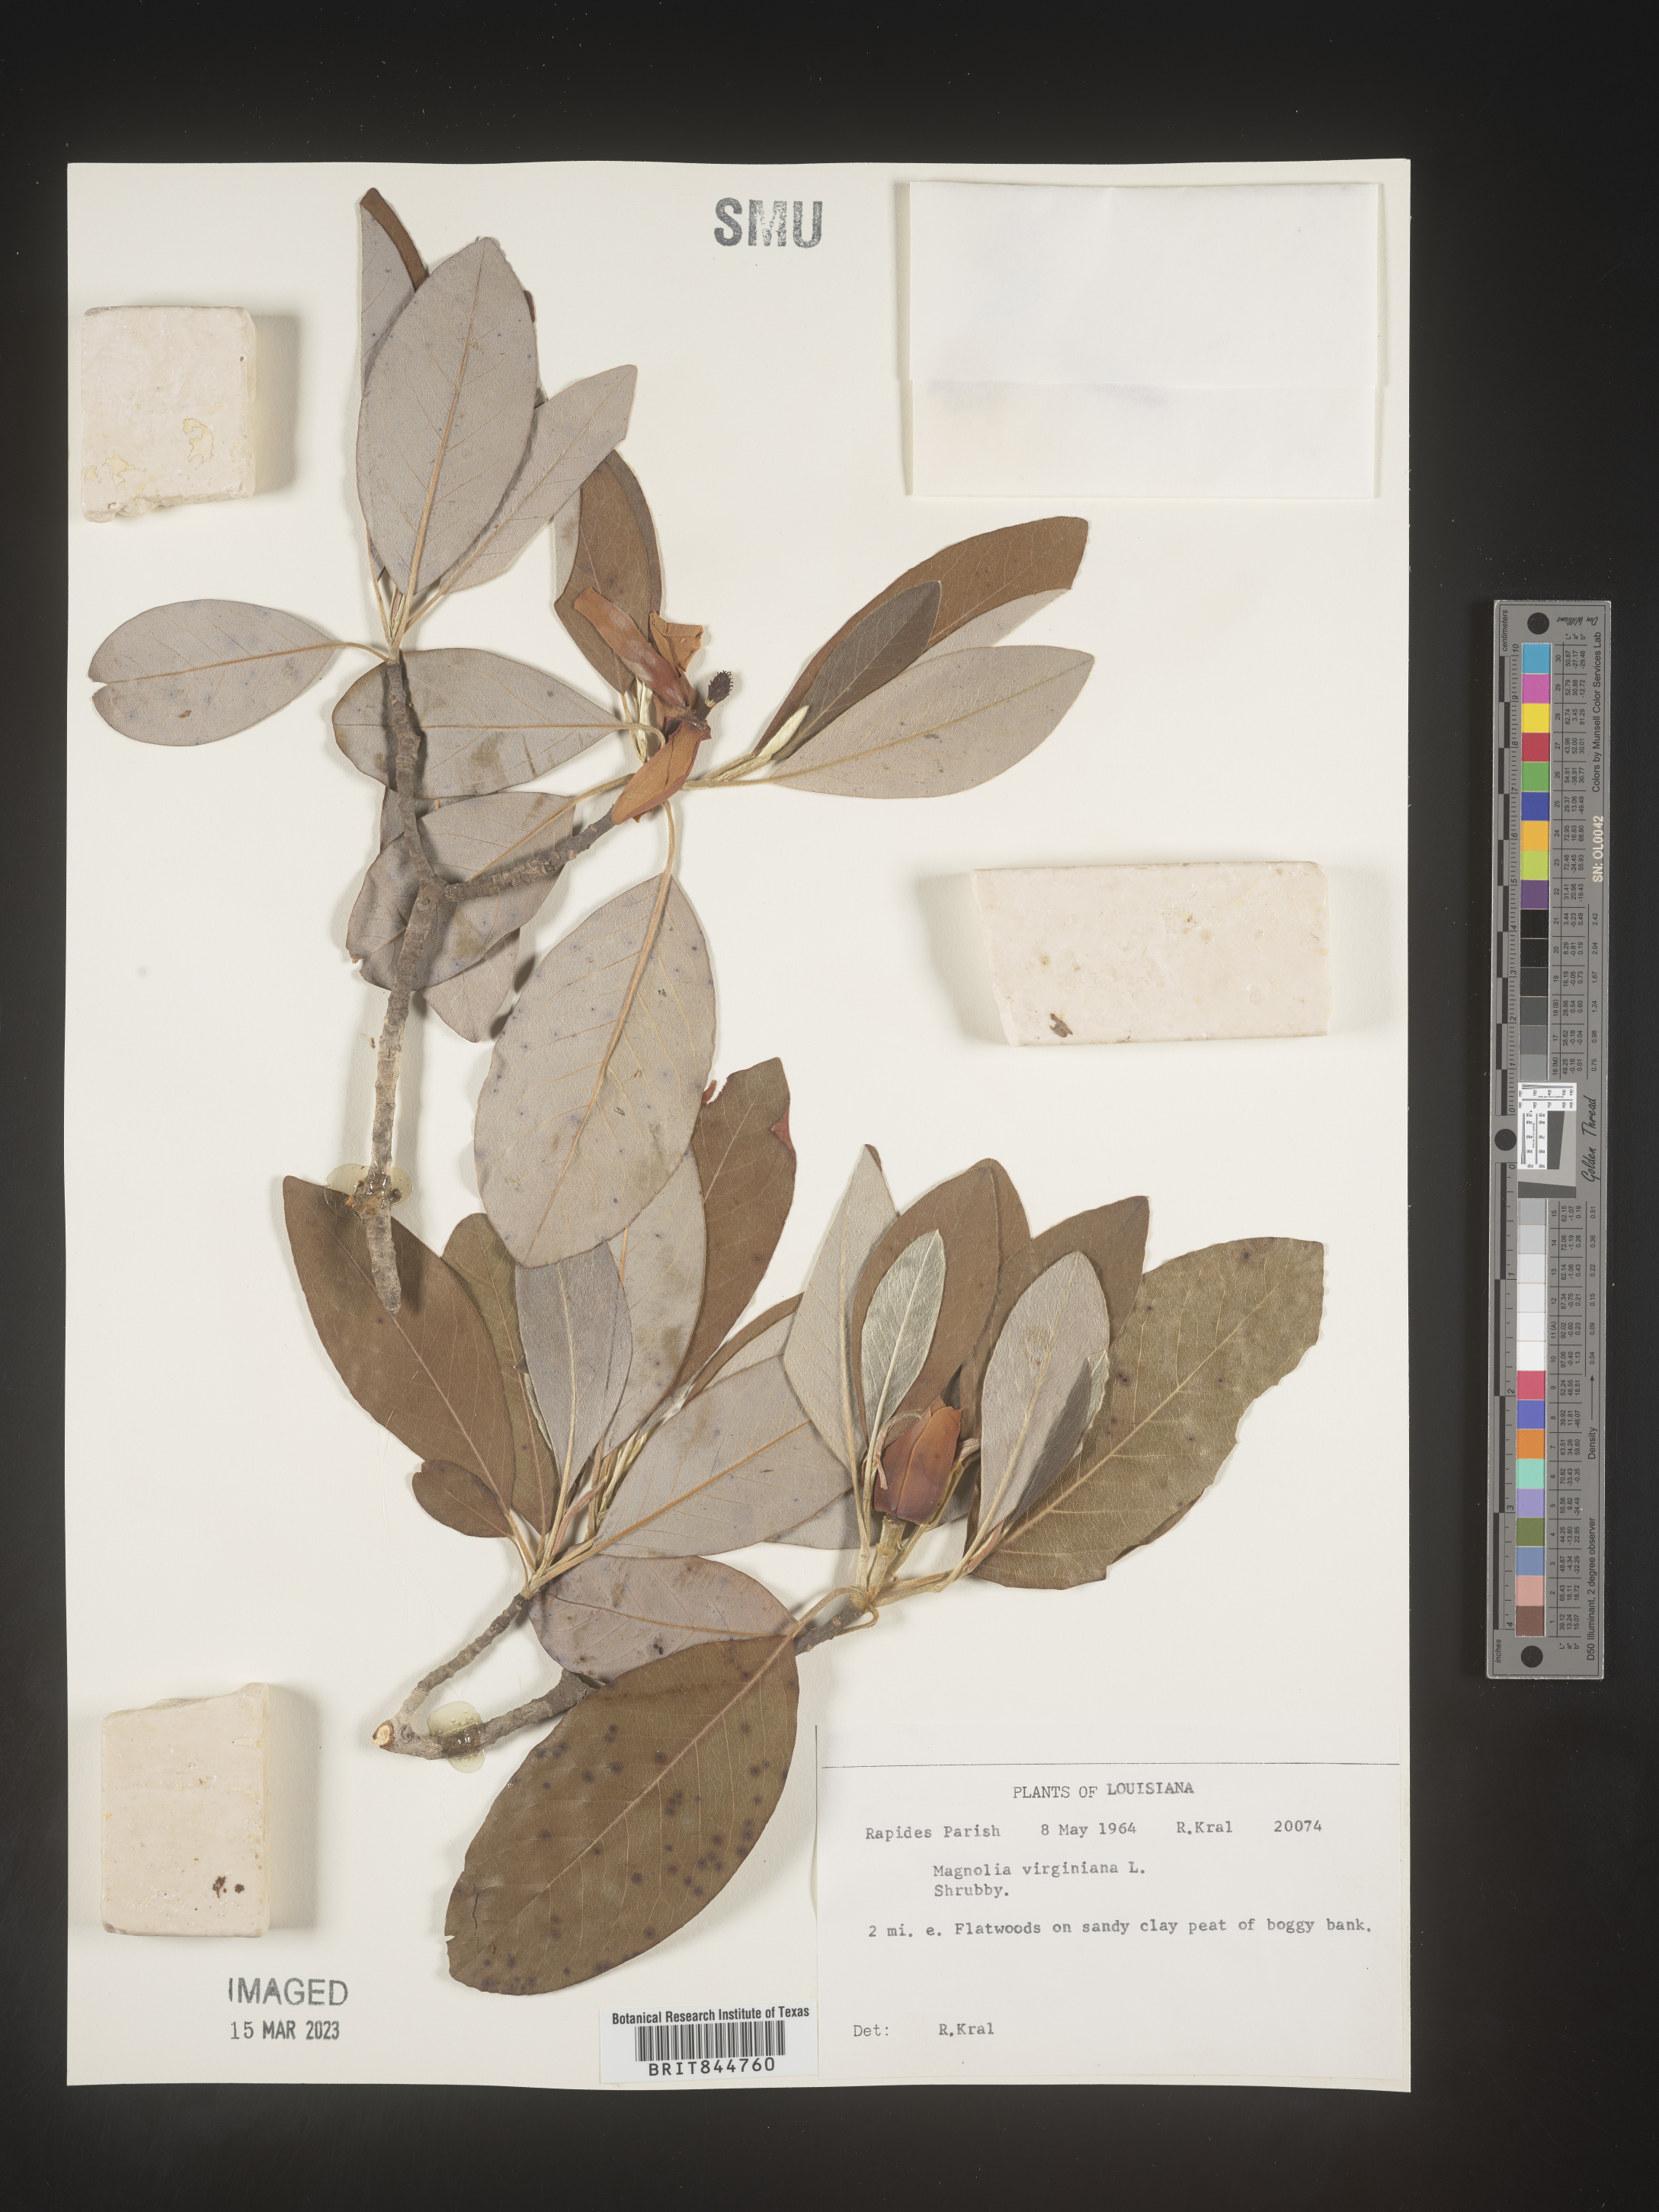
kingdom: Plantae
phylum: Tracheophyta
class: Magnoliopsida
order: Magnoliales
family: Magnoliaceae
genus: Magnolia
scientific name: Magnolia virginiana
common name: Swamp bay
